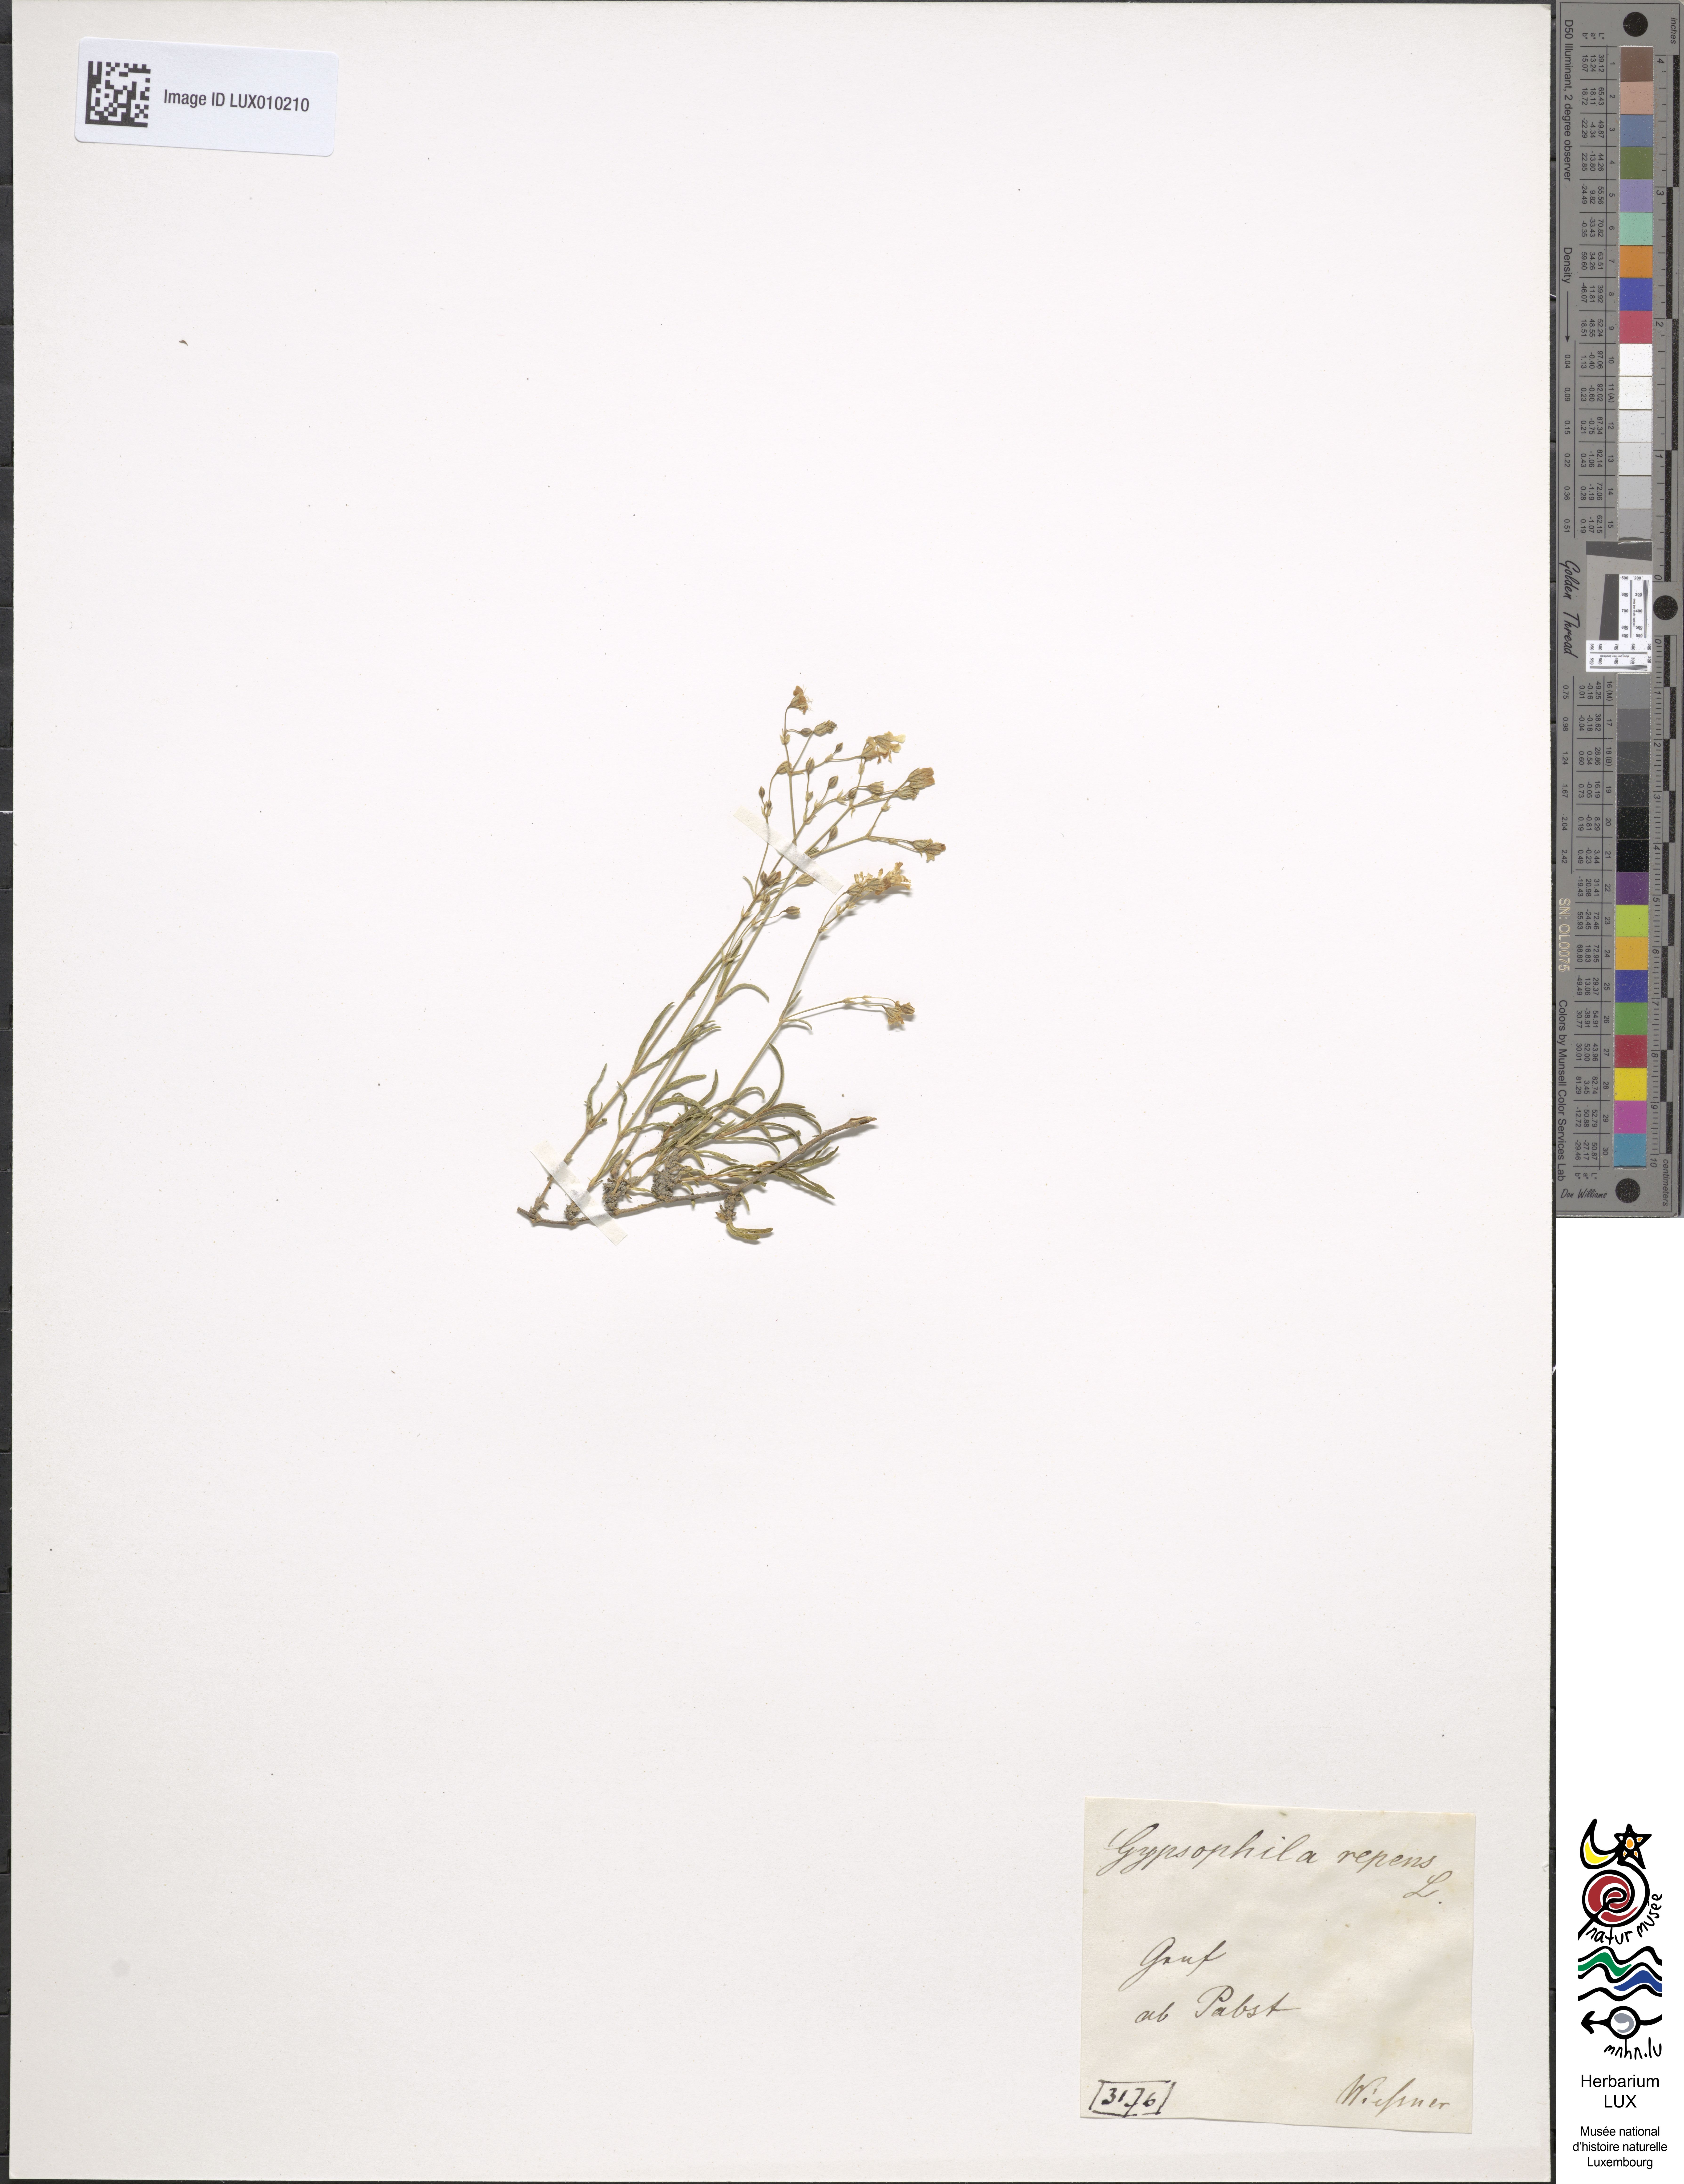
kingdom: Plantae
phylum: Tracheophyta
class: Magnoliopsida
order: Caryophyllales
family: Caryophyllaceae
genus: Gypsophila
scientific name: Gypsophila repens
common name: Creeping baby's-breath
